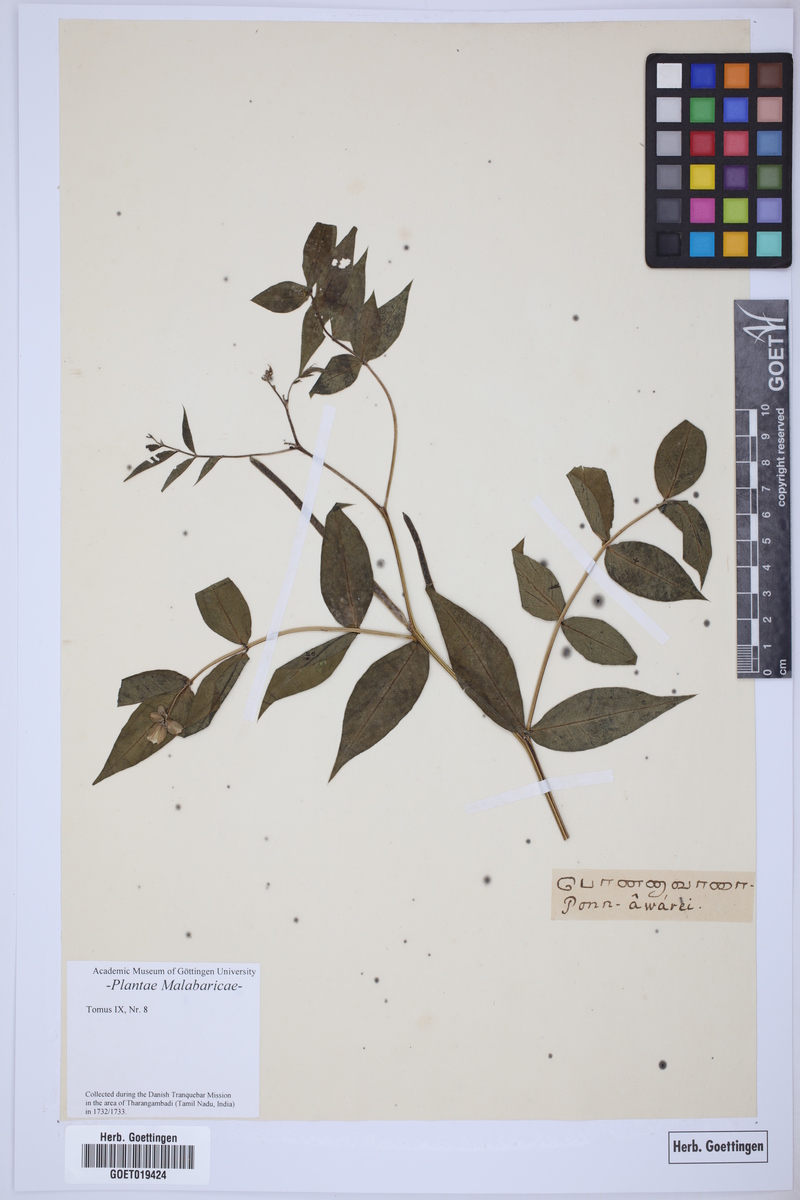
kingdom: Plantae
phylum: Tracheophyta
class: Magnoliopsida
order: Fabales
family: Fabaceae
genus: Senna
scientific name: Senna sophera
